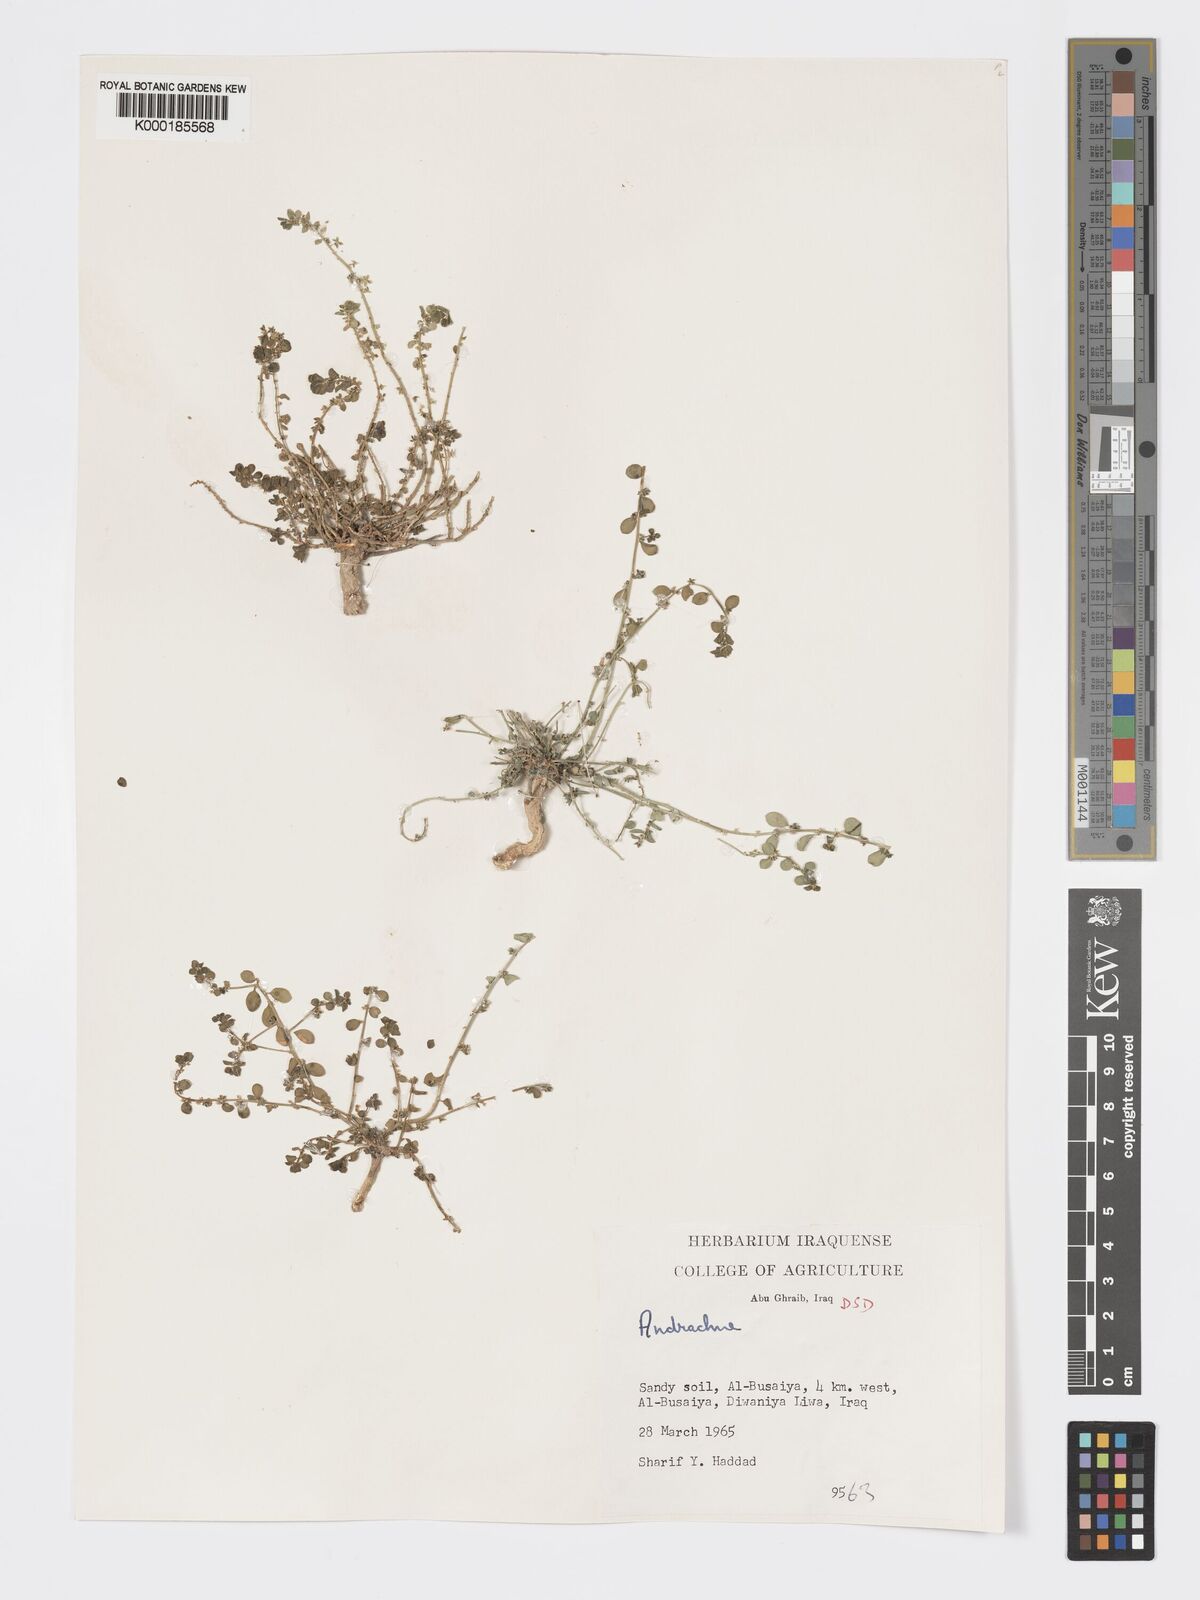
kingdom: Plantae
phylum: Tracheophyta
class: Magnoliopsida
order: Malpighiales
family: Phyllanthaceae
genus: Andrachne
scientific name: Andrachne telephioides
